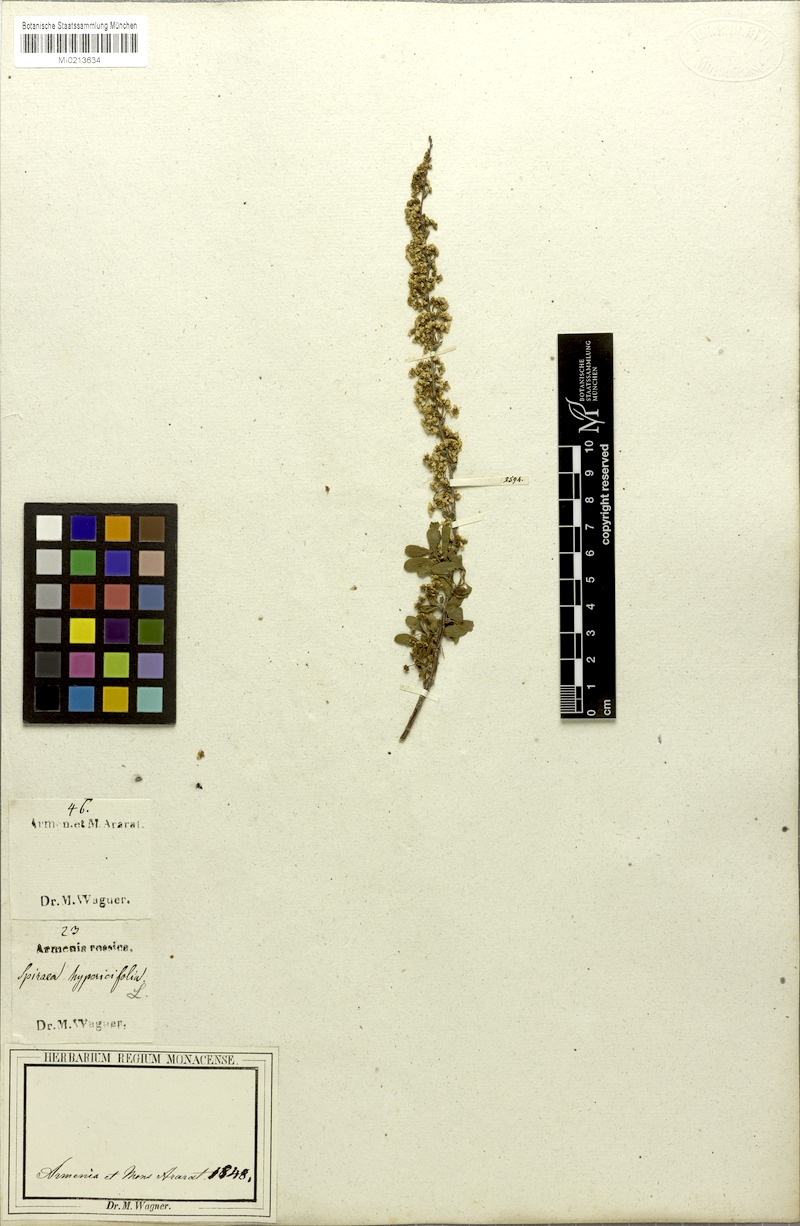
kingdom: Plantae
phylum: Tracheophyta
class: Magnoliopsida
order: Rosales
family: Rosaceae
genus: Spiraea
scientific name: Spiraea hypericifolia
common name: Iberian spirea
